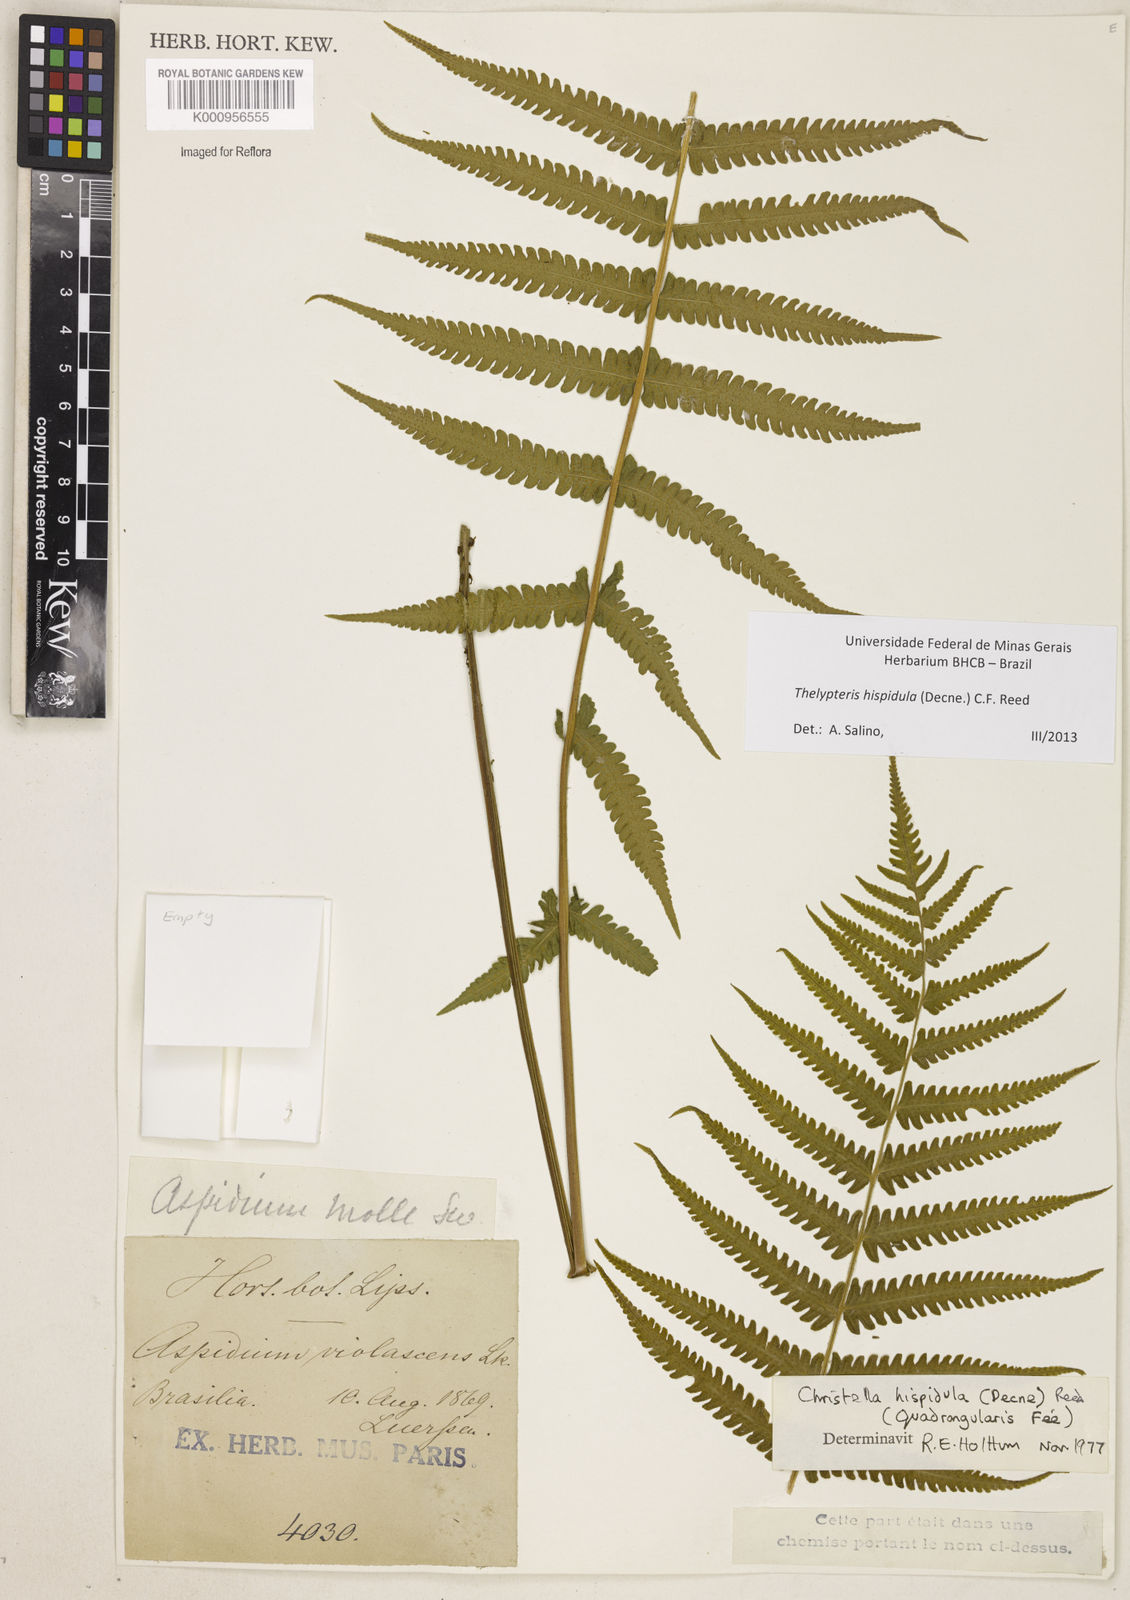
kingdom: Plantae
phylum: Tracheophyta
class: Polypodiopsida
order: Polypodiales
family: Thelypteridaceae
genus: Christella
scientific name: Christella hispidula
